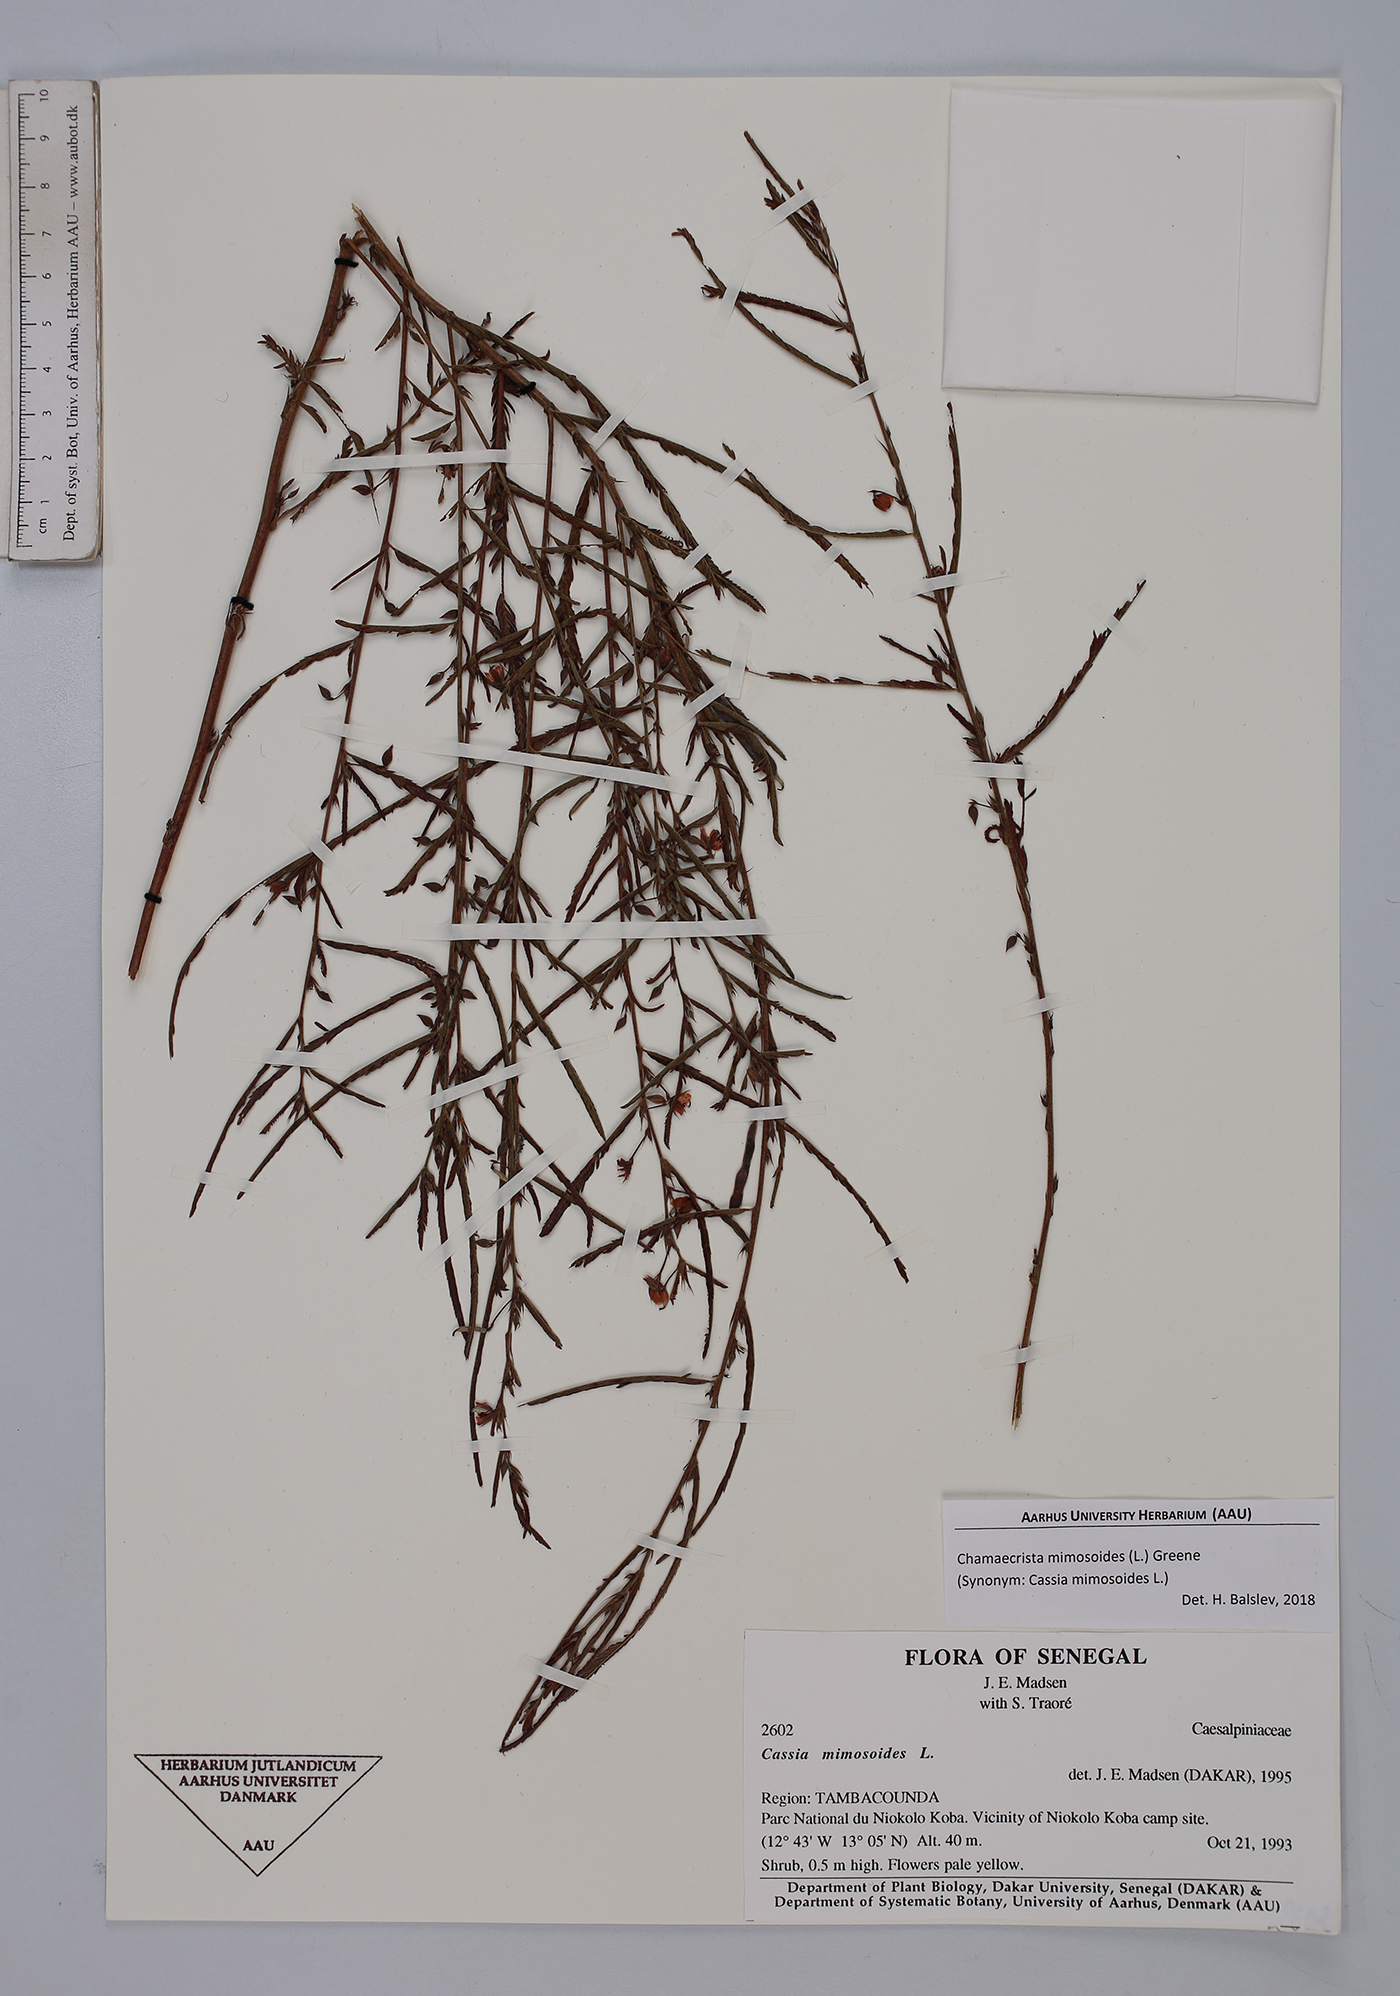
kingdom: Plantae
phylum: Tracheophyta
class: Magnoliopsida
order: Fabales
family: Fabaceae
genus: Chamaecrista
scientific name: Chamaecrista mimosoides
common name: Fish-bone cassia
